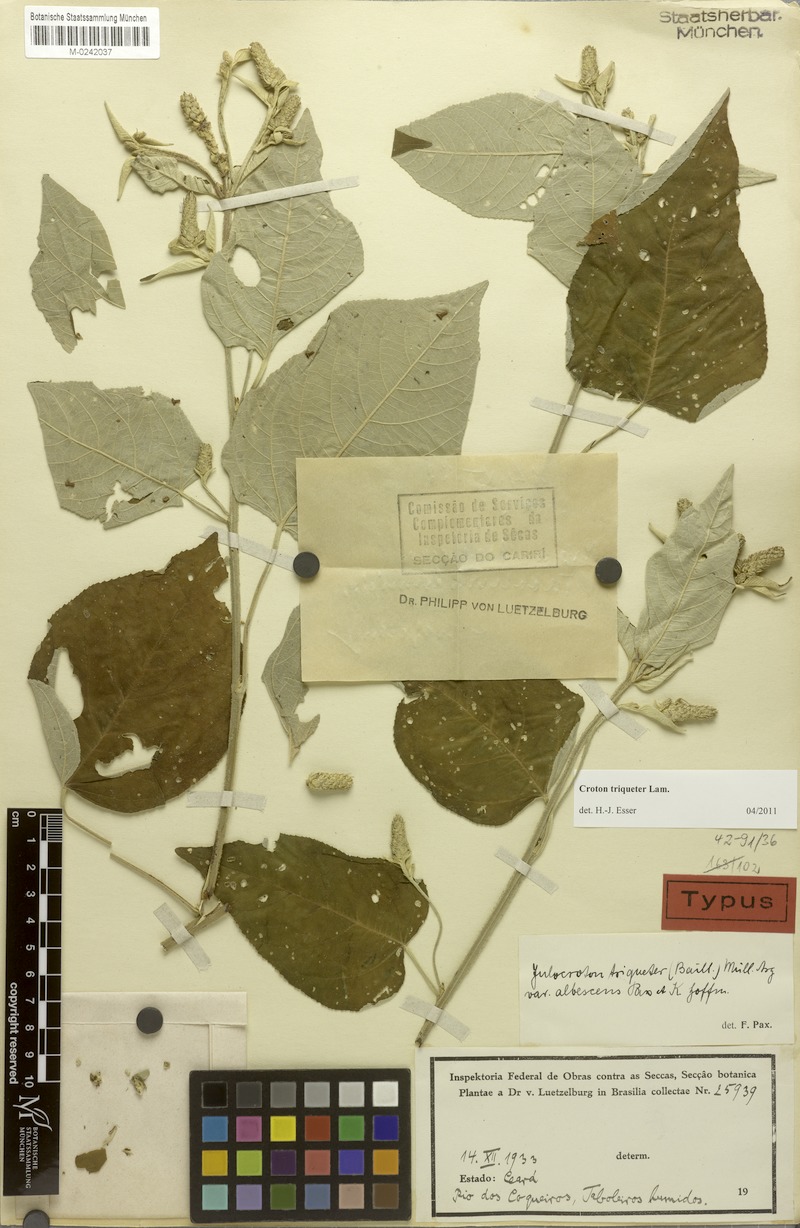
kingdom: Plantae
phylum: Tracheophyta
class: Magnoliopsida
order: Malpighiales
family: Euphorbiaceae
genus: Croton
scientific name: Croton triqueter
